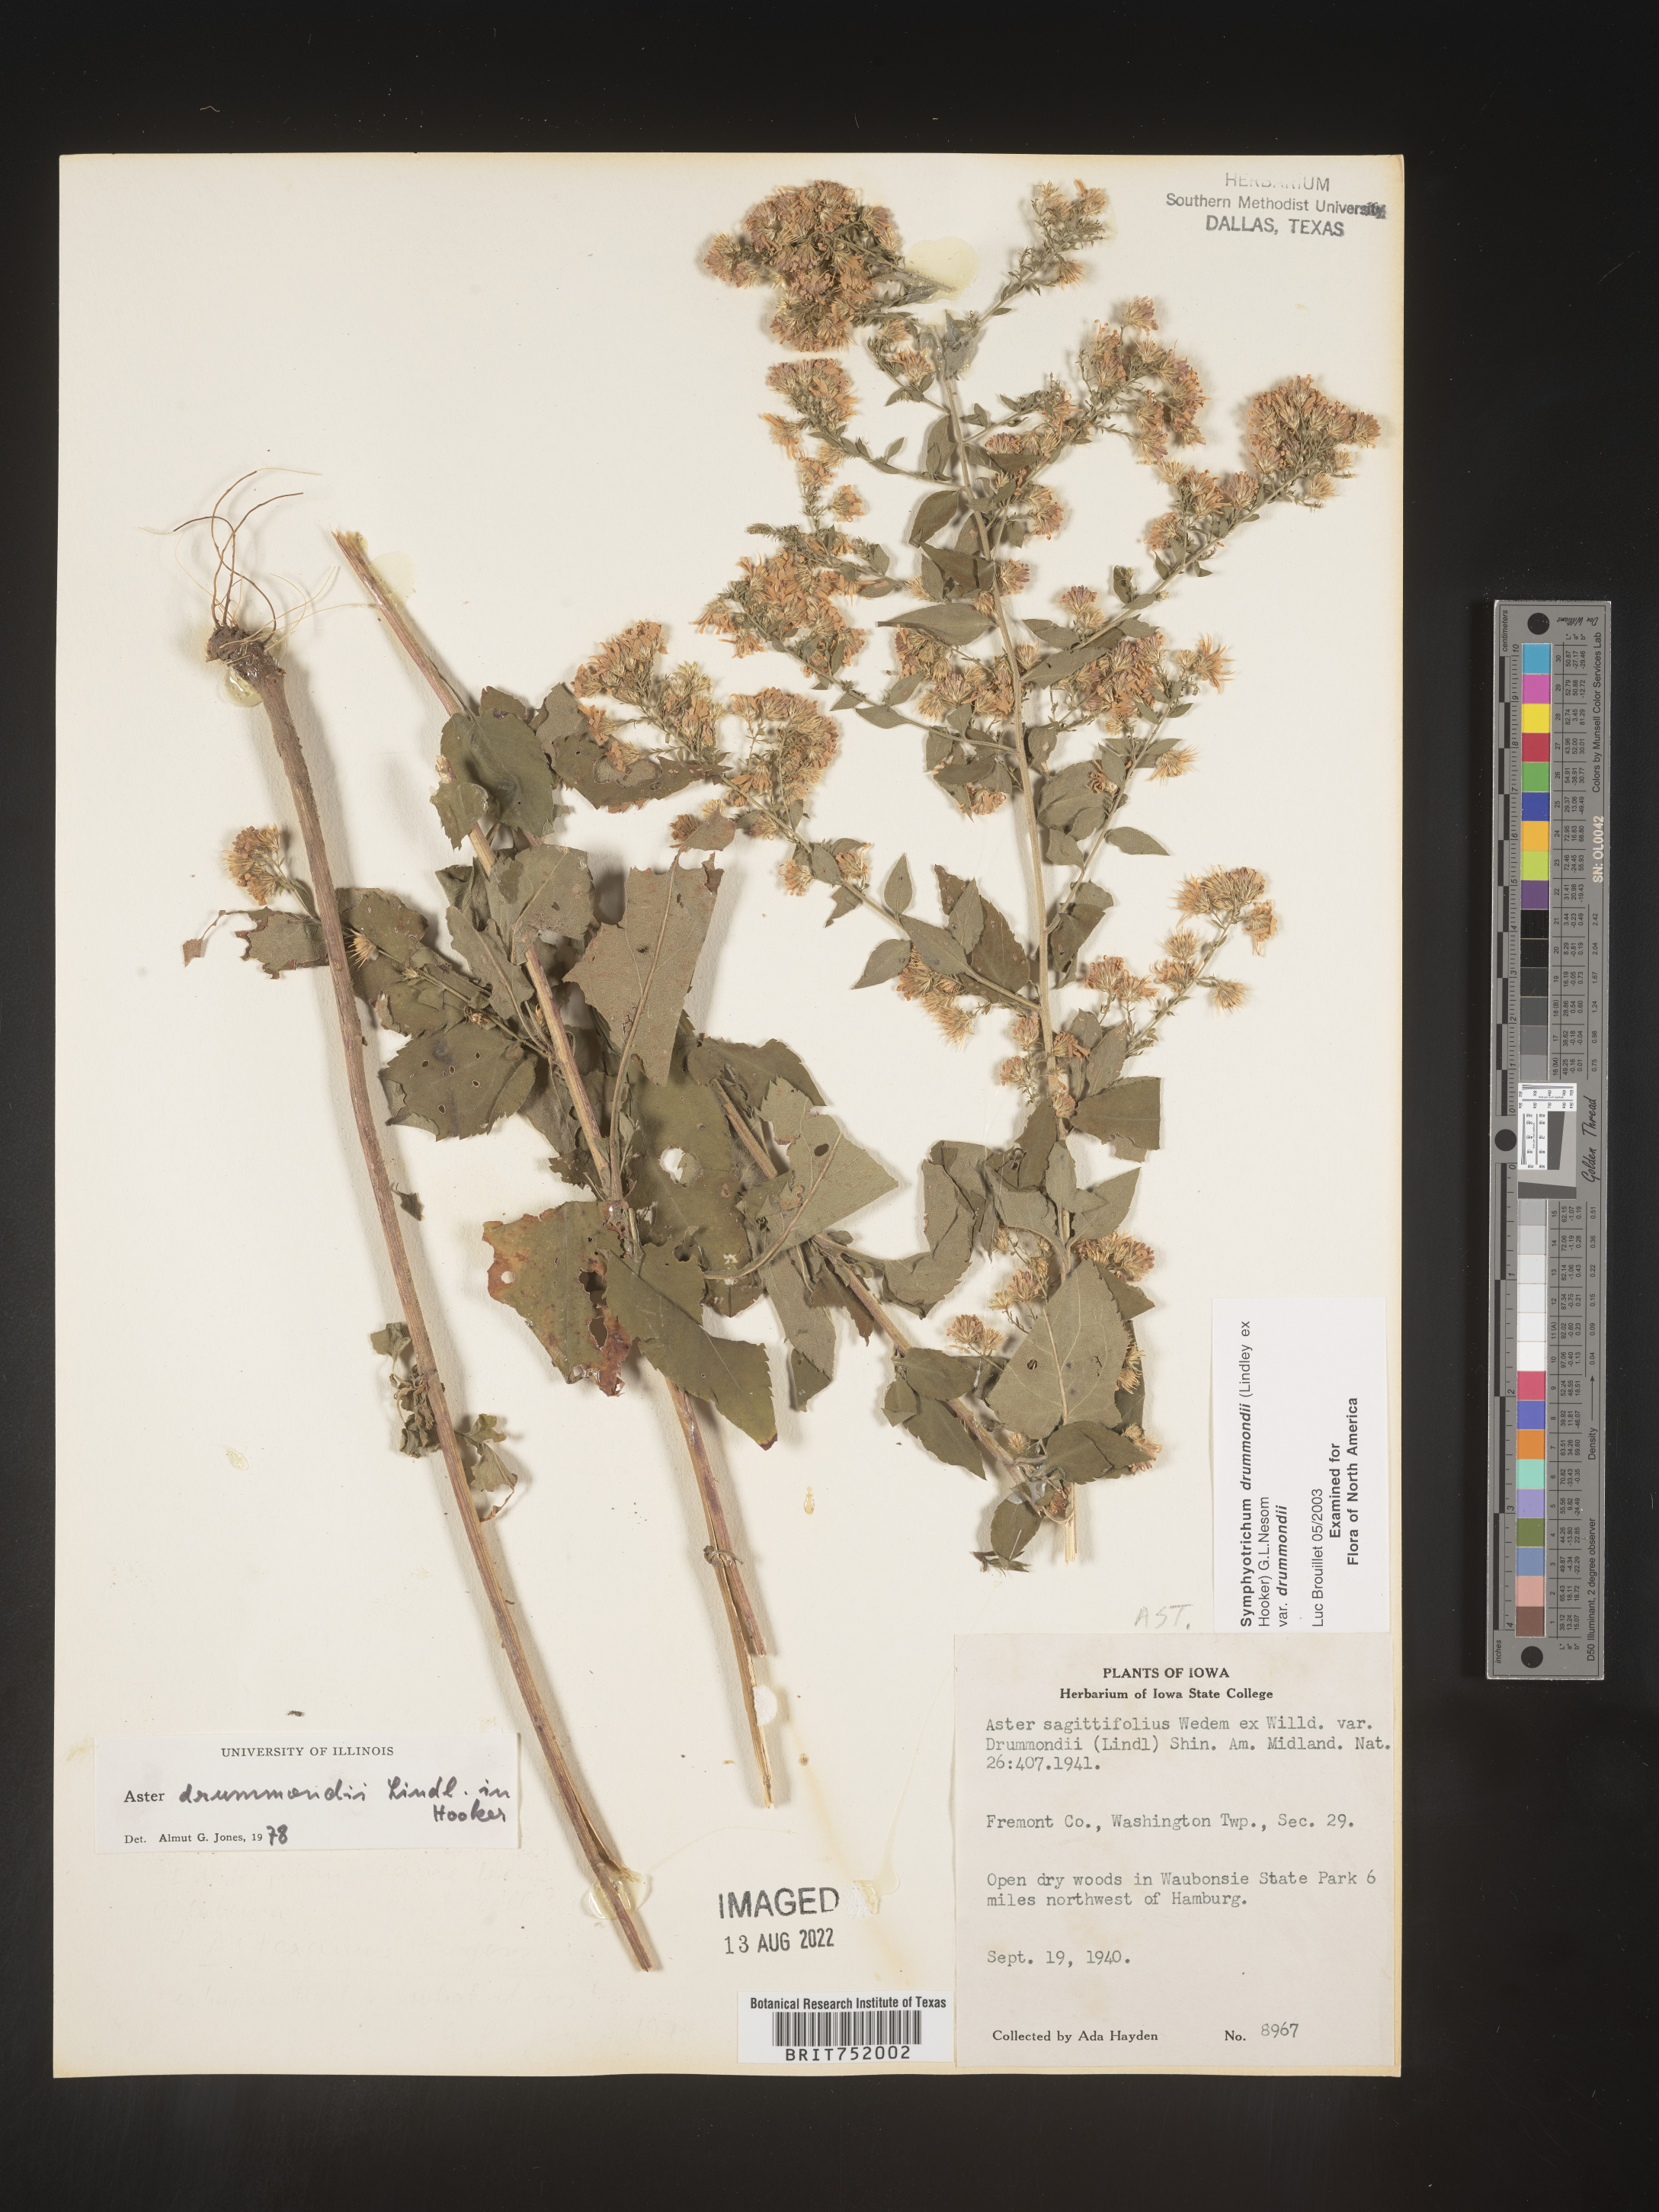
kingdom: Plantae
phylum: Tracheophyta
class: Magnoliopsida
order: Asterales
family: Asteraceae
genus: Symphyotrichum
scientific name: Symphyotrichum drummondii
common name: Drummond's aster
